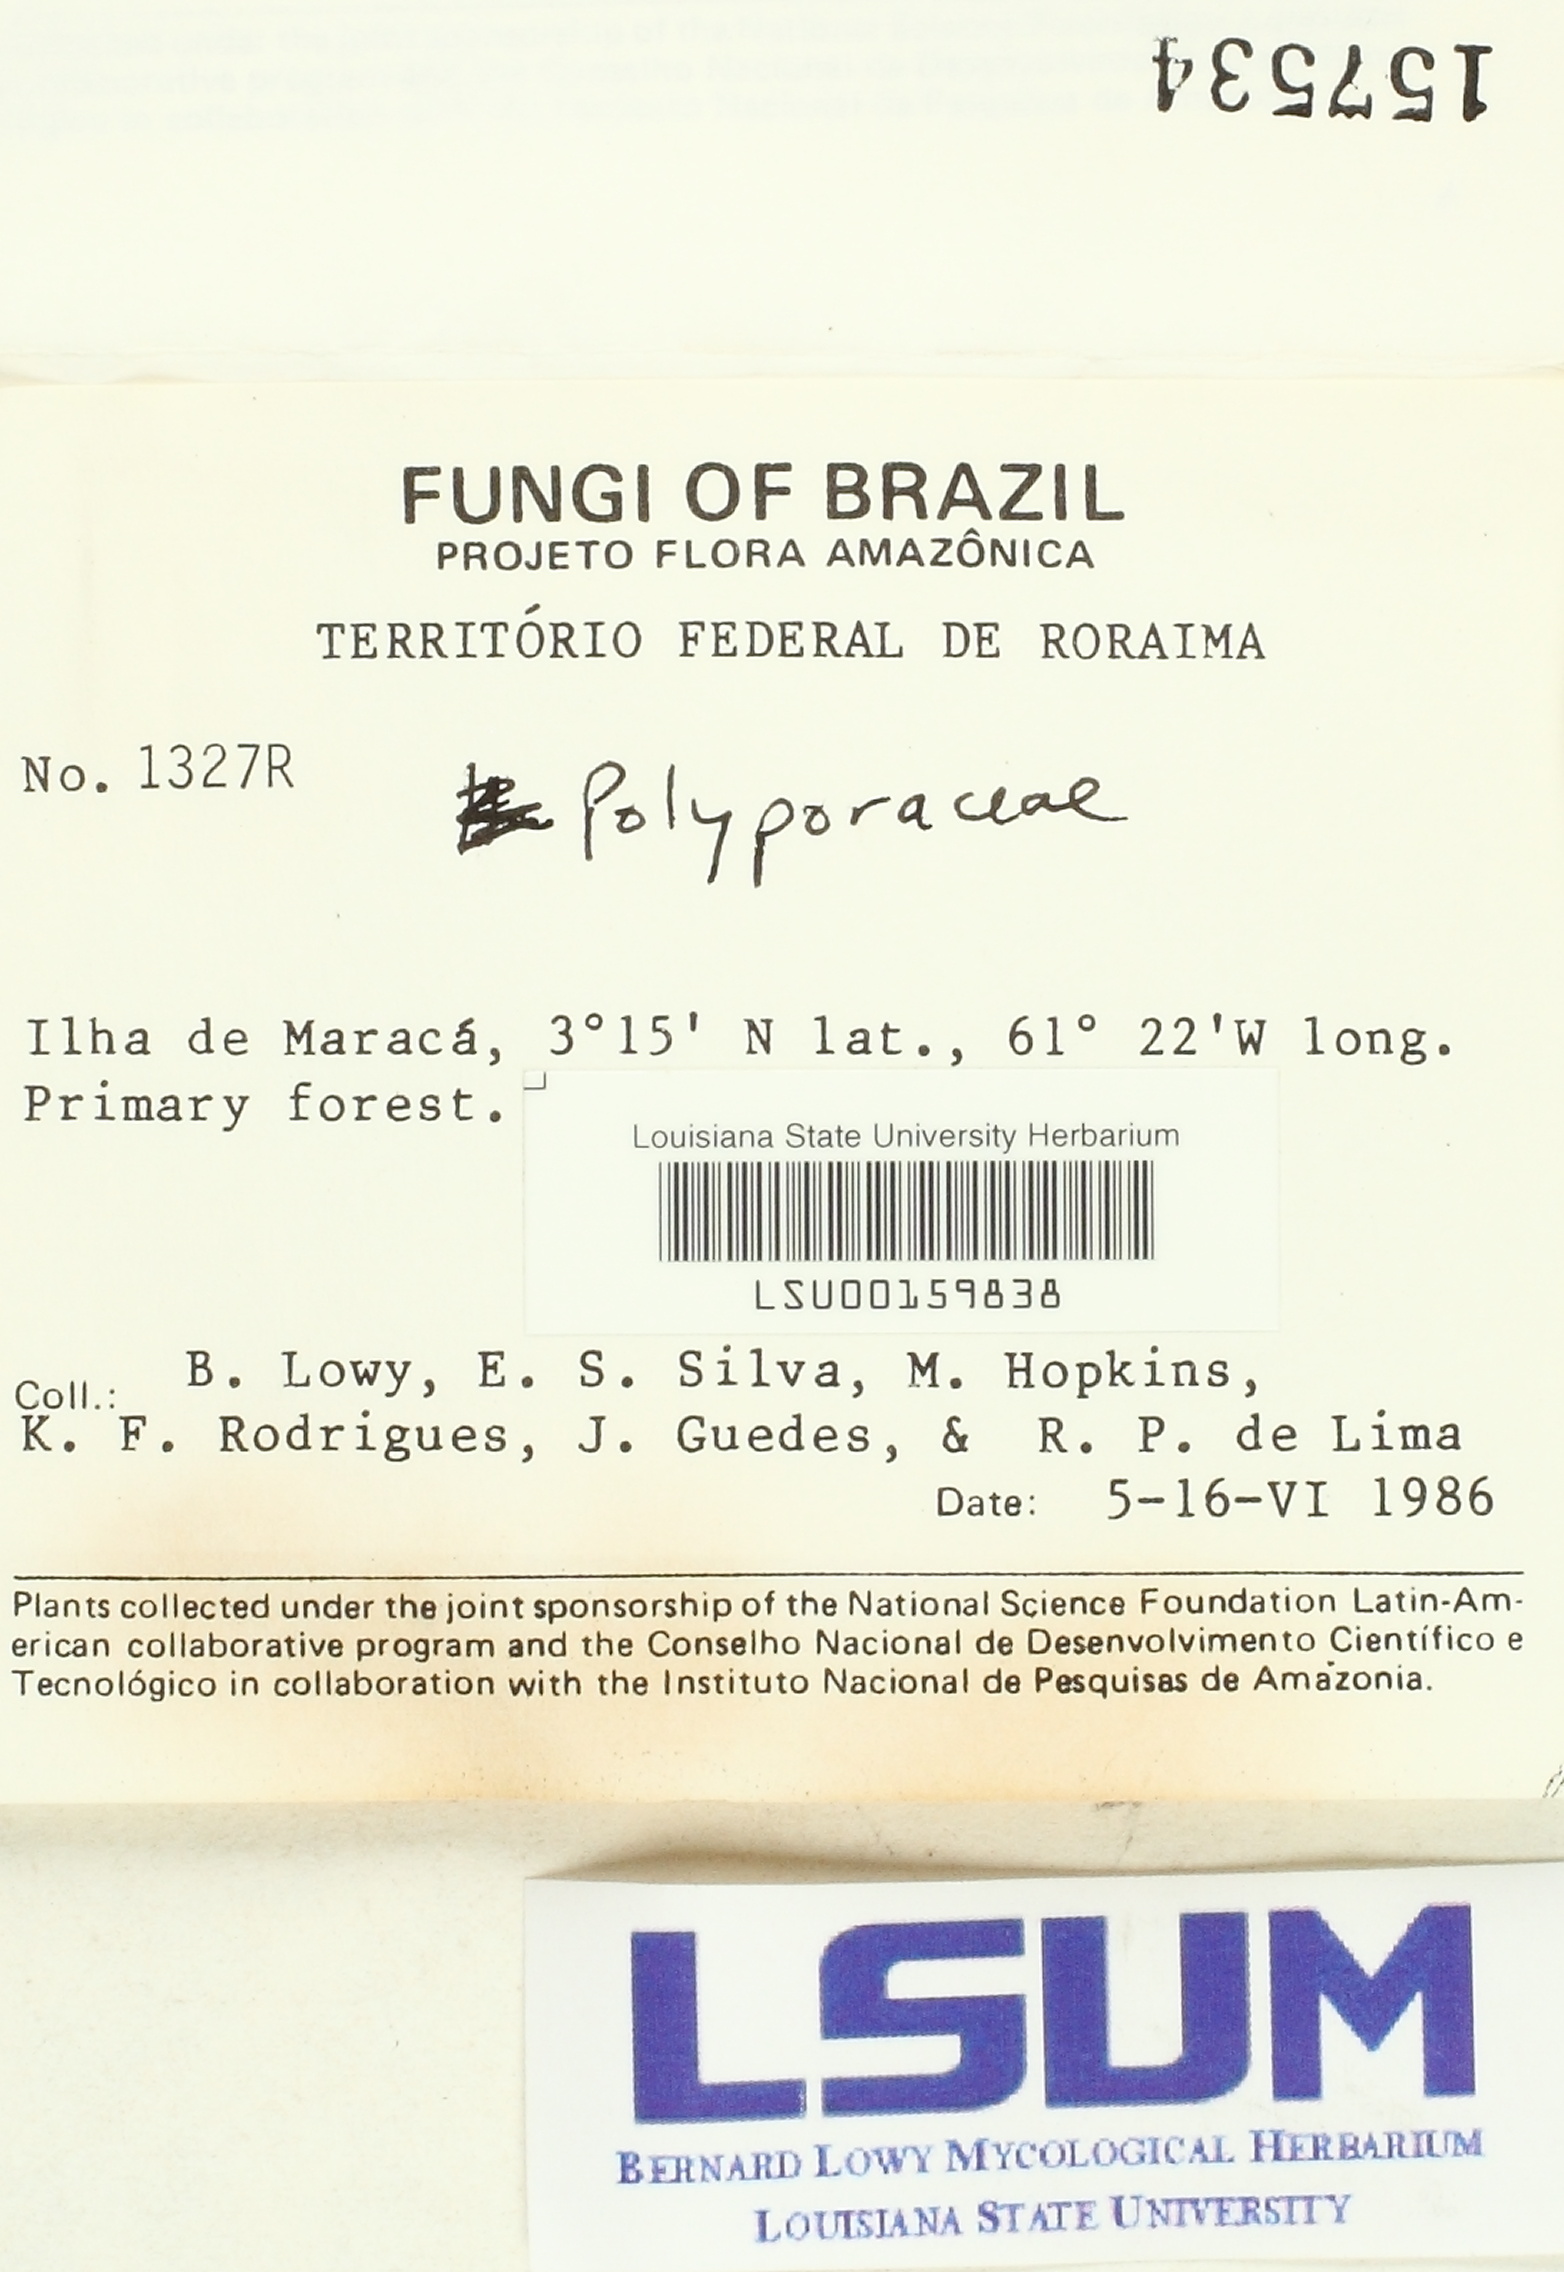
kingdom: Fungi
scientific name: Fungi
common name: Fungi
